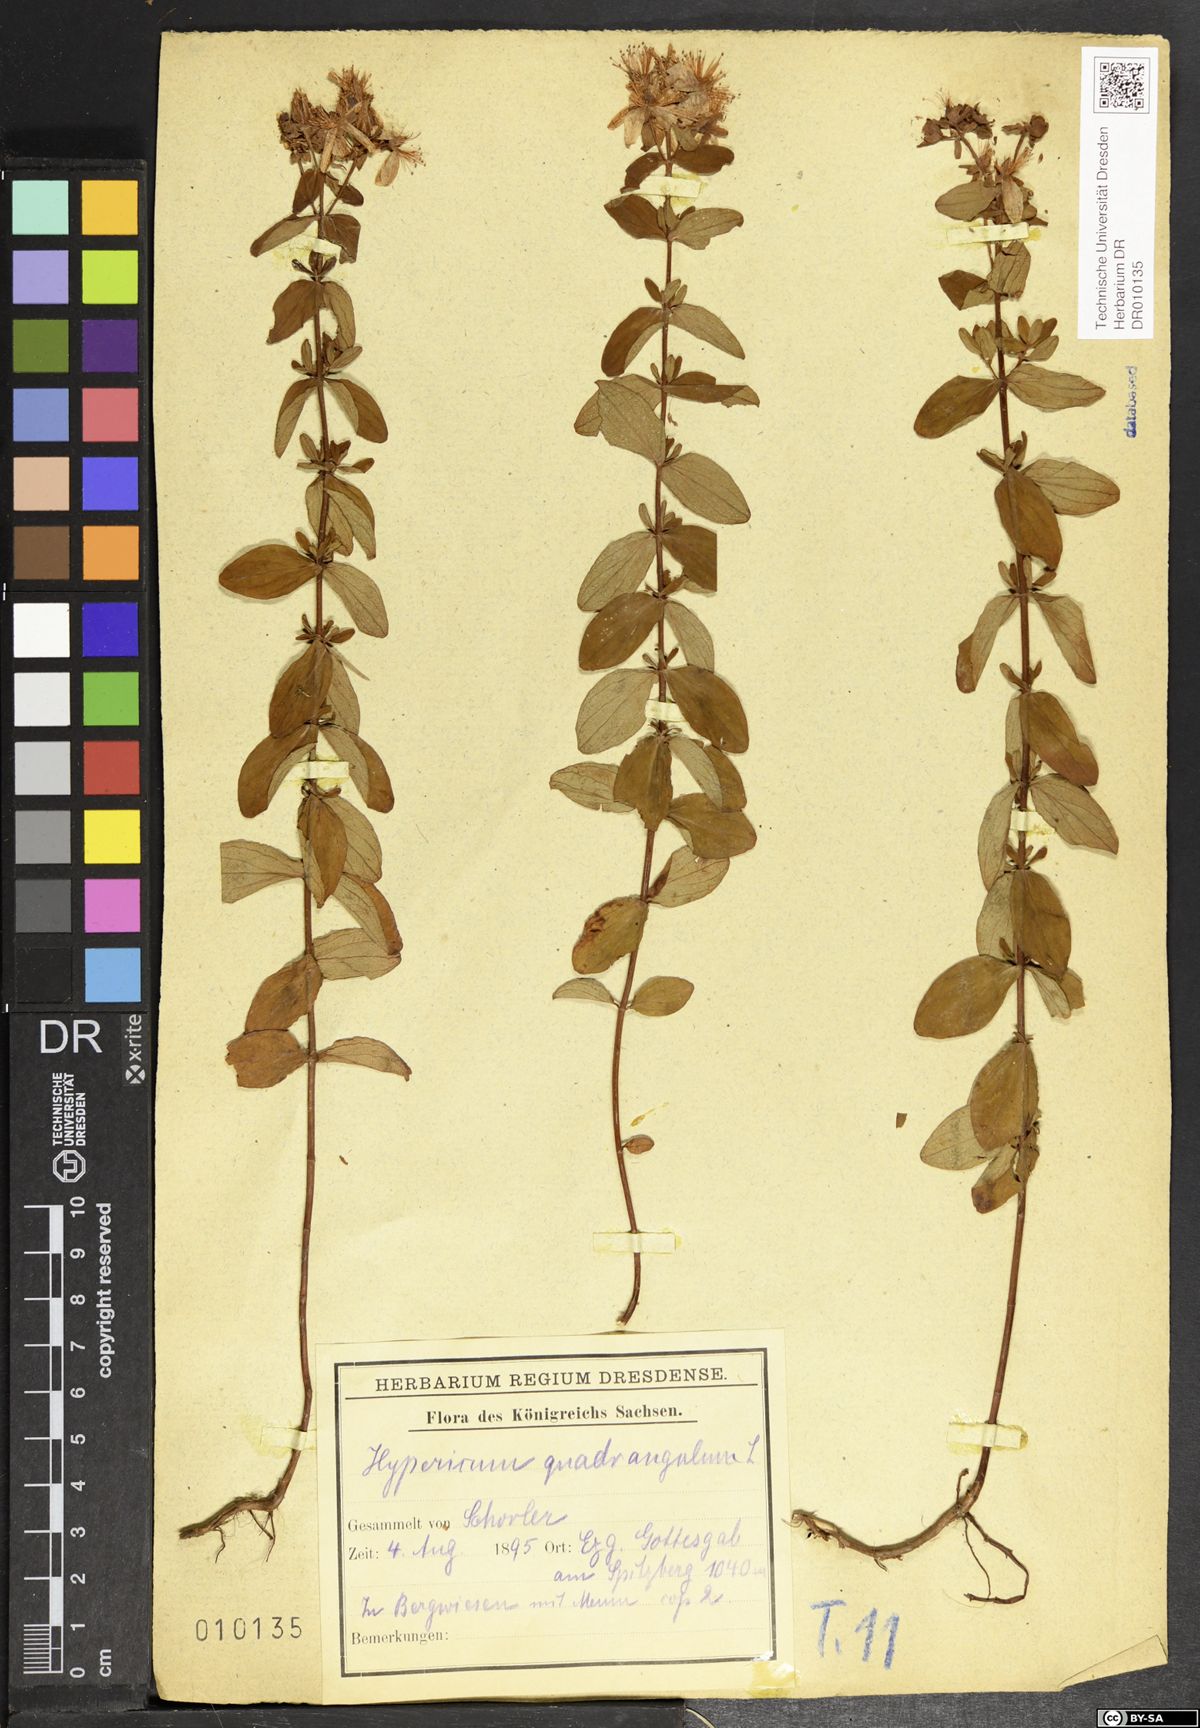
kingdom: Plantae
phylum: Tracheophyta
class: Magnoliopsida
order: Malpighiales
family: Hypericaceae
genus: Hypericum
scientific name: Hypericum maculatum
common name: Imperforate st. john's-wort
